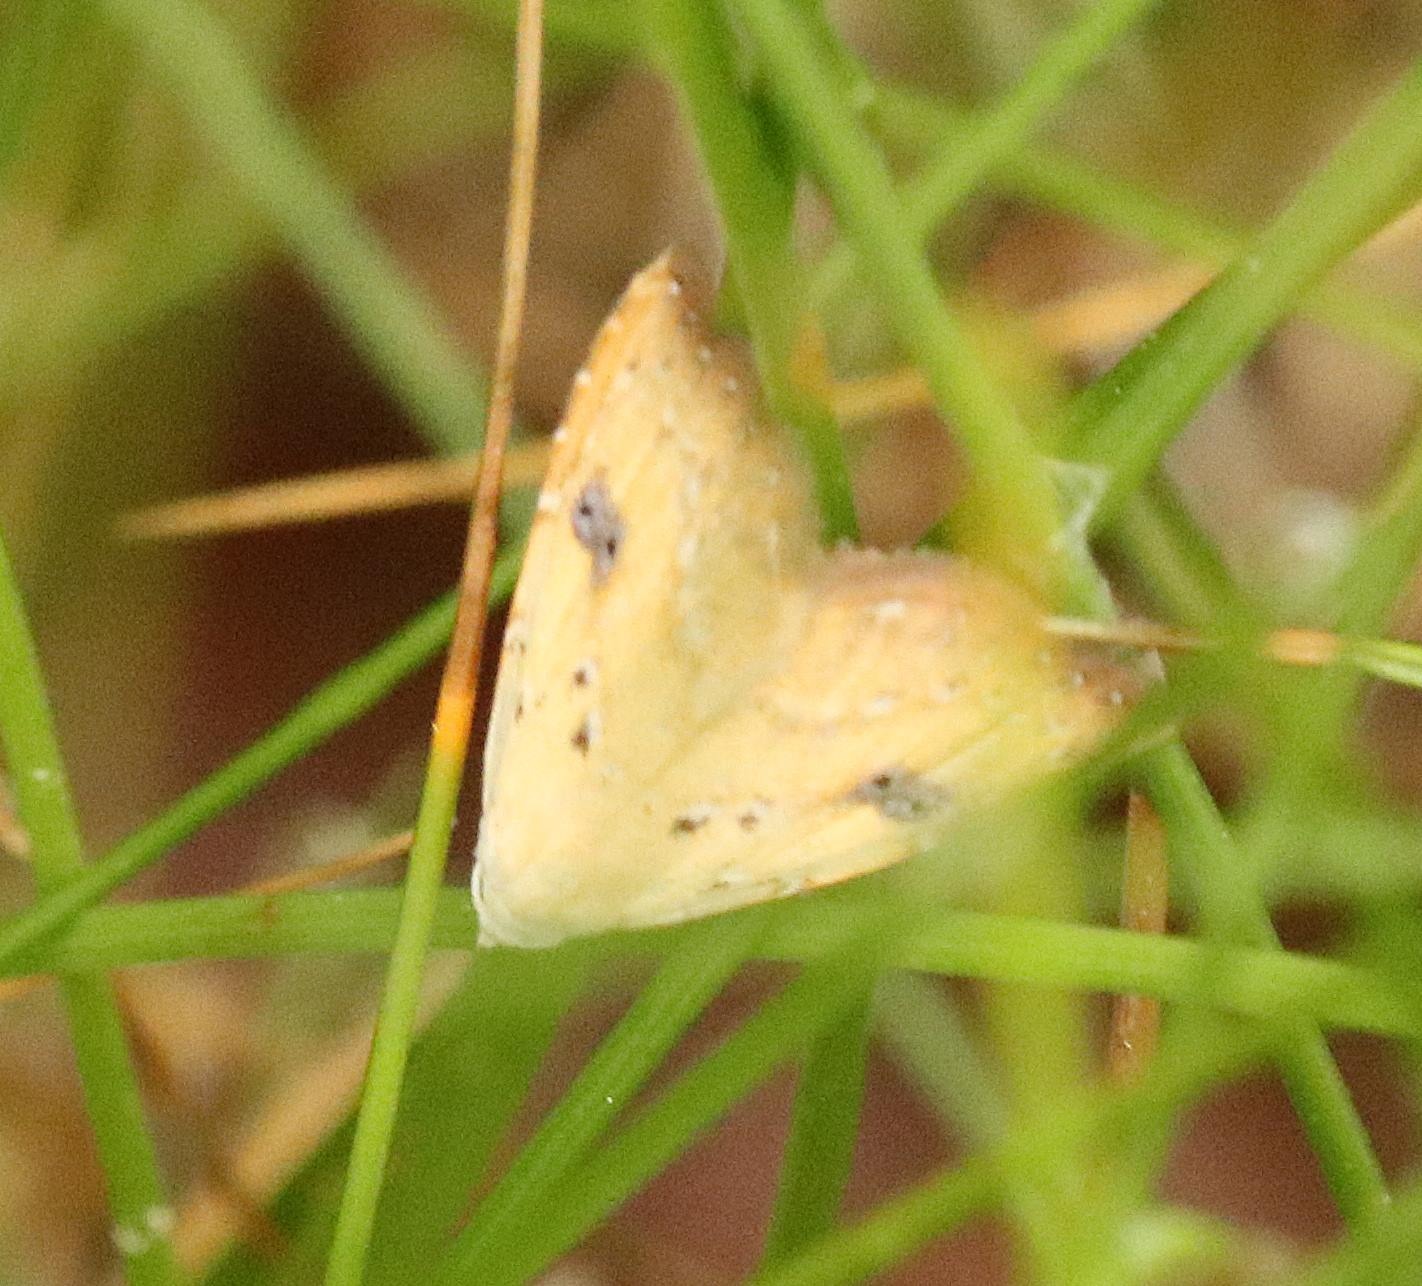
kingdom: Animalia
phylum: Arthropoda
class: Insecta
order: Lepidoptera
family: Erebidae
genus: Rivula
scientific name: Rivula sericealis
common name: Lille å-ugle
